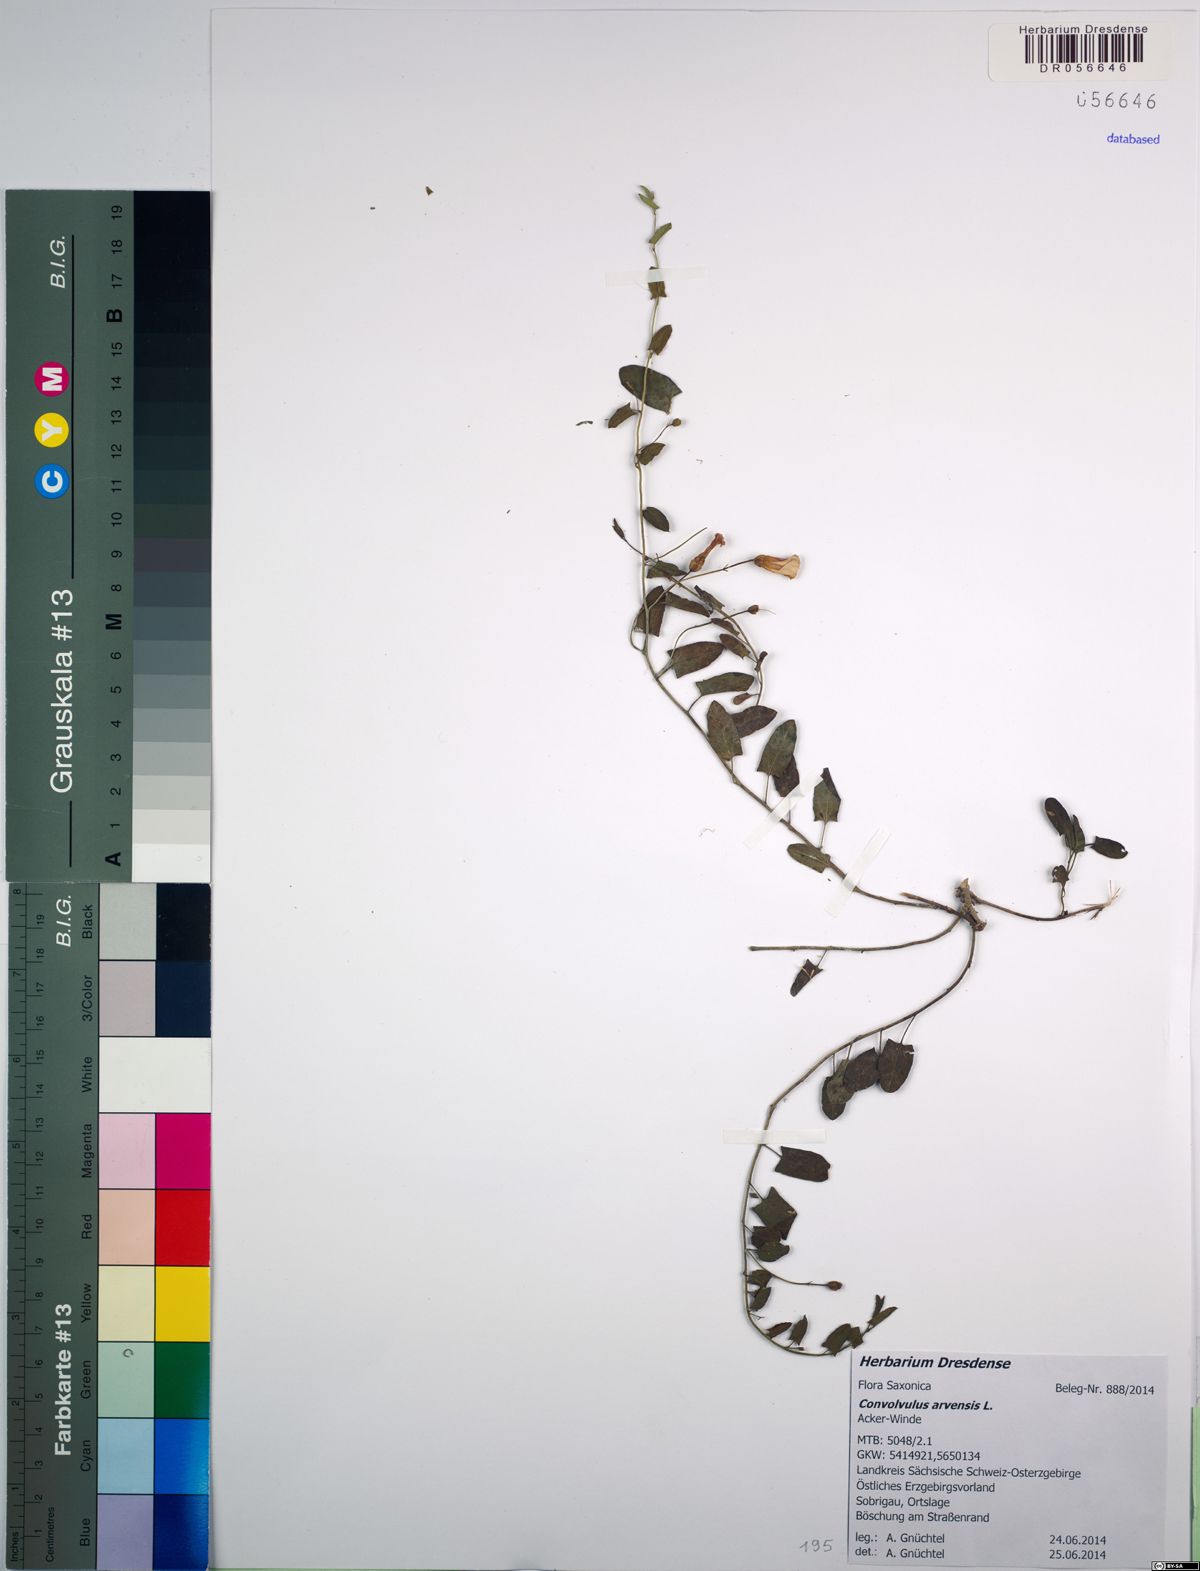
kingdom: Plantae
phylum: Tracheophyta
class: Magnoliopsida
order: Solanales
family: Convolvulaceae
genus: Convolvulus
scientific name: Convolvulus arvensis
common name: Field bindweed
